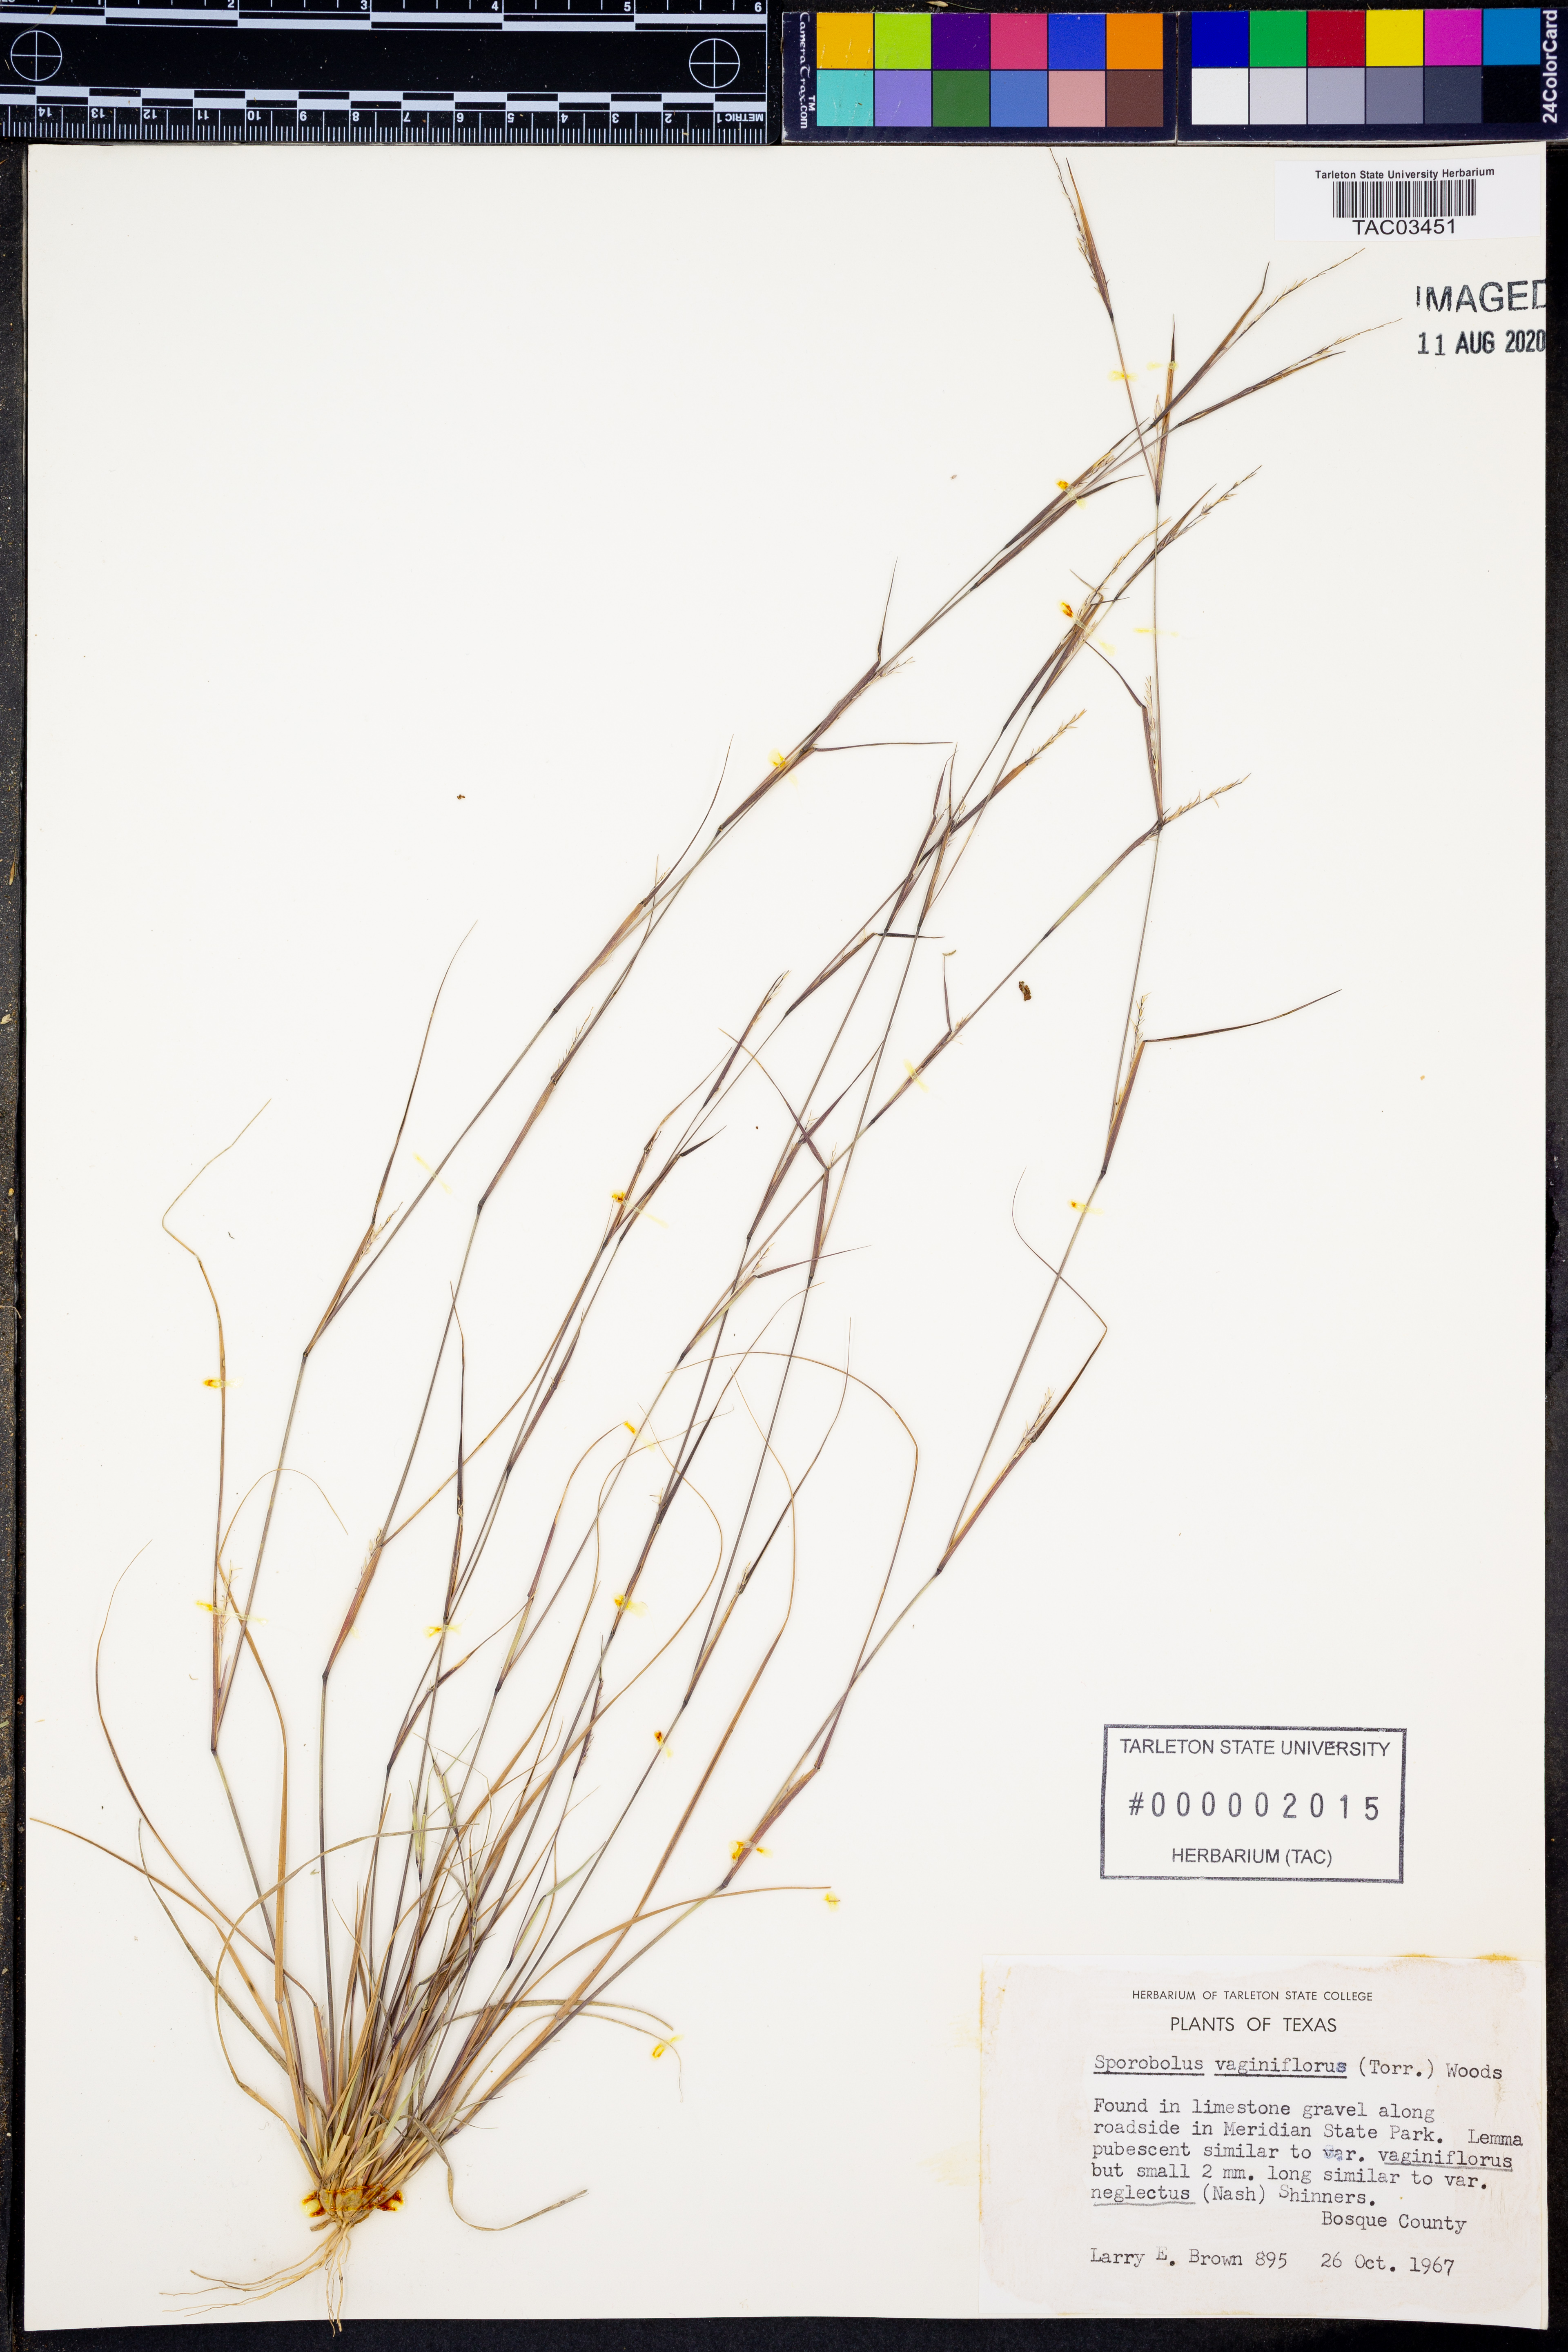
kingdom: Plantae
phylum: Tracheophyta
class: Liliopsida
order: Poales
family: Poaceae
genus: Sporobolus
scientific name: Sporobolus vaginiflorus
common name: Poverty dropseed
